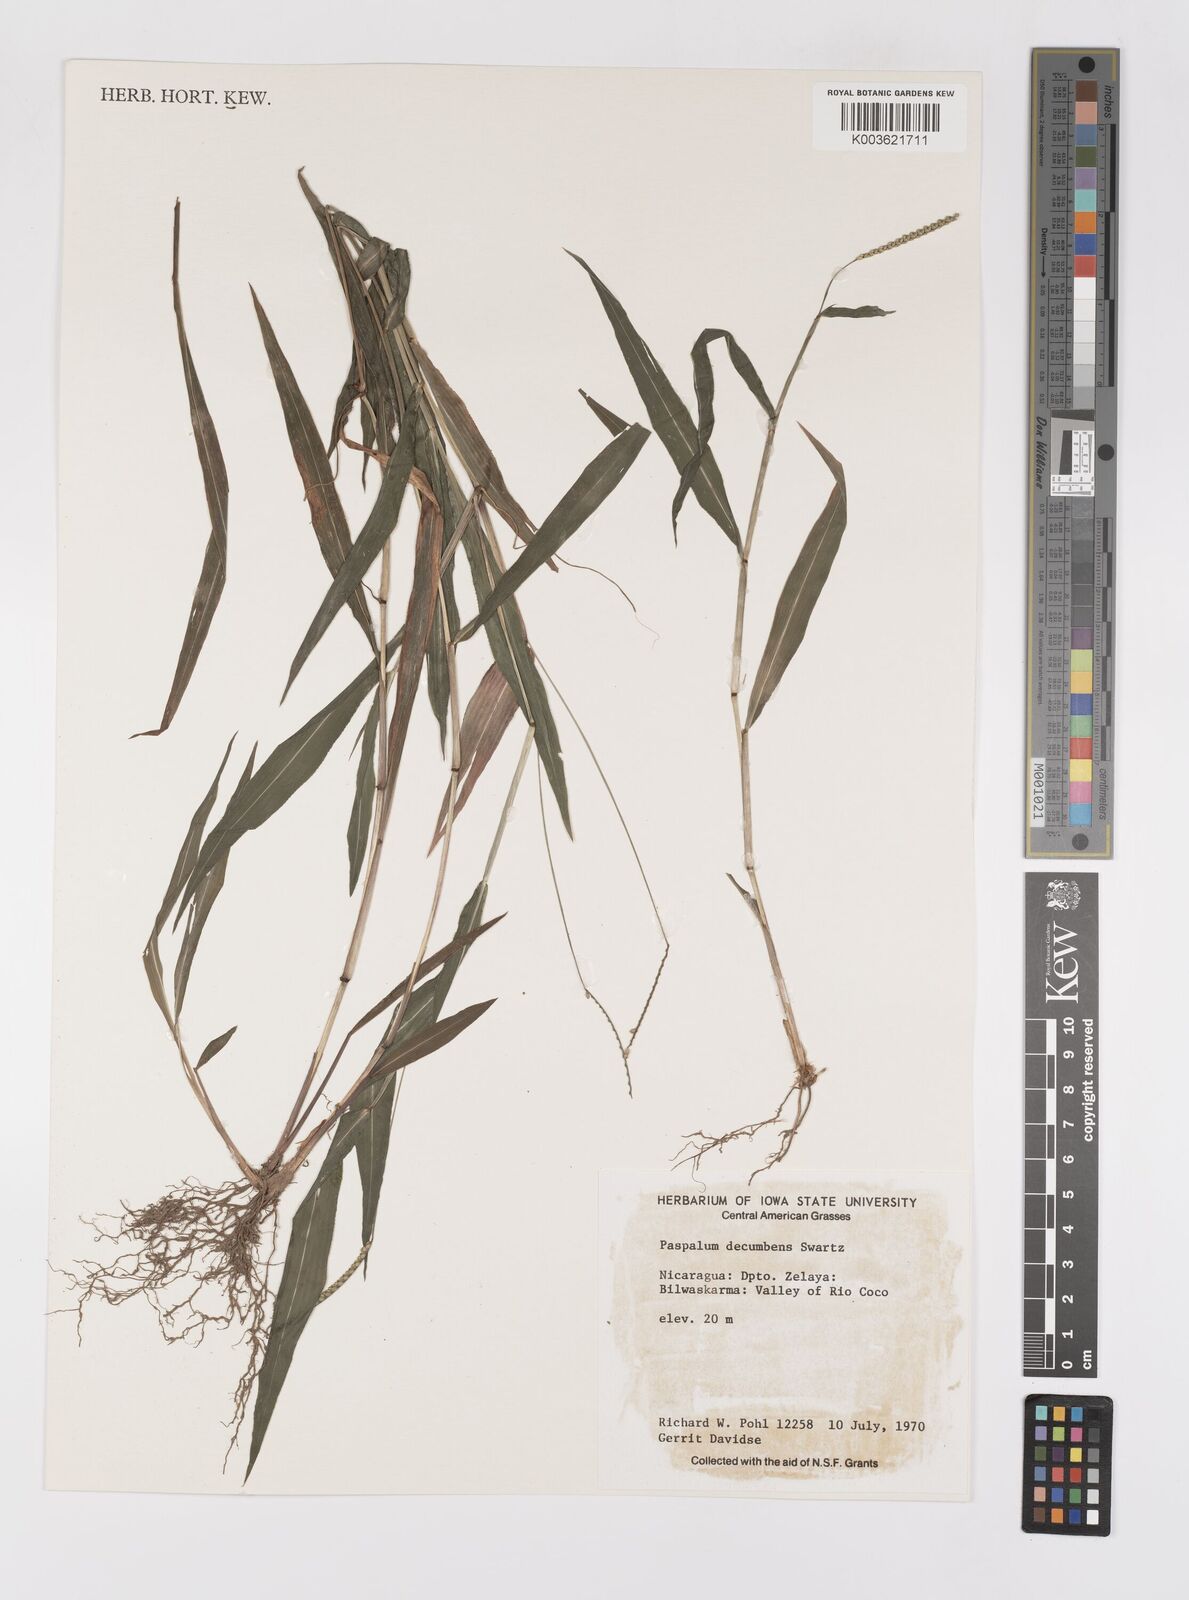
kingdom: Plantae
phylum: Tracheophyta
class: Liliopsida
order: Poales
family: Poaceae
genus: Paspalum
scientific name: Paspalum
